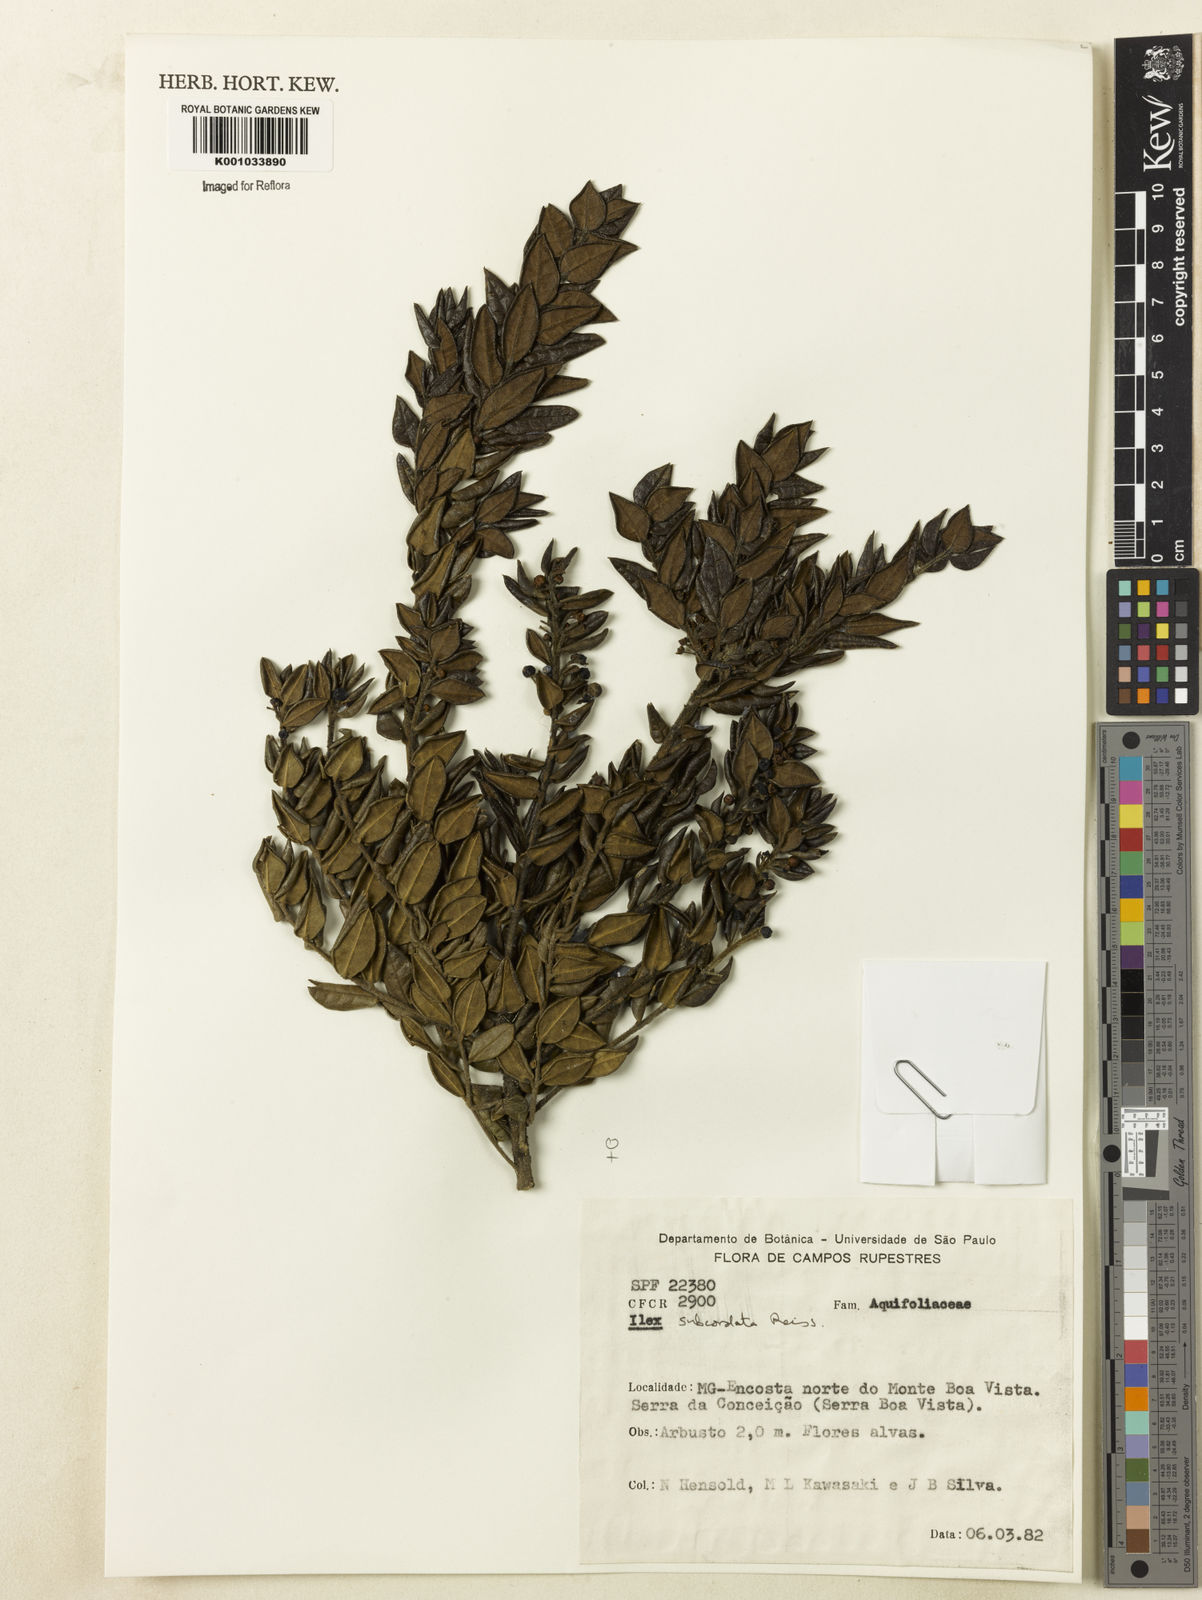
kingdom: Plantae
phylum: Tracheophyta
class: Magnoliopsida
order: Aquifoliales
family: Aquifoliaceae
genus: Ilex
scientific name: Ilex subcordata
